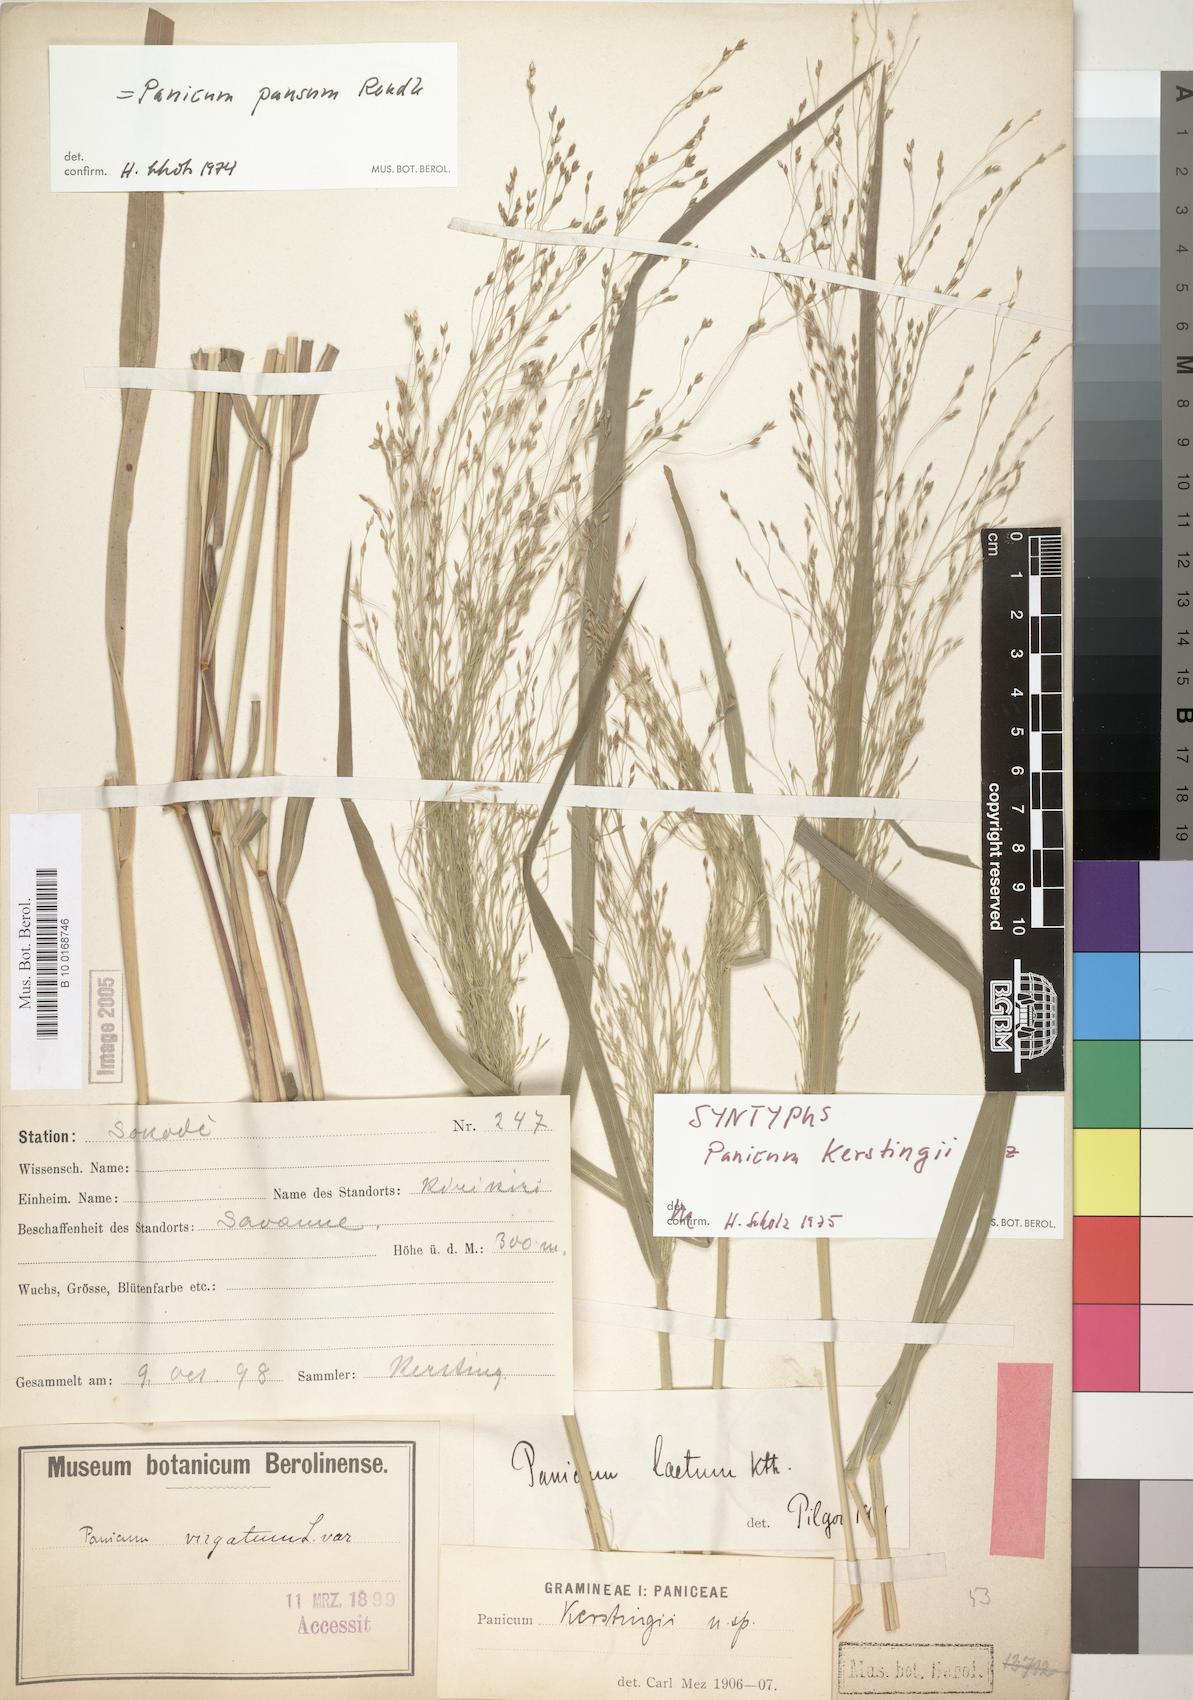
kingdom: Plantae
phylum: Tracheophyta
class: Liliopsida
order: Poales
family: Poaceae
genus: Panicum
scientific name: Panicum pansum
